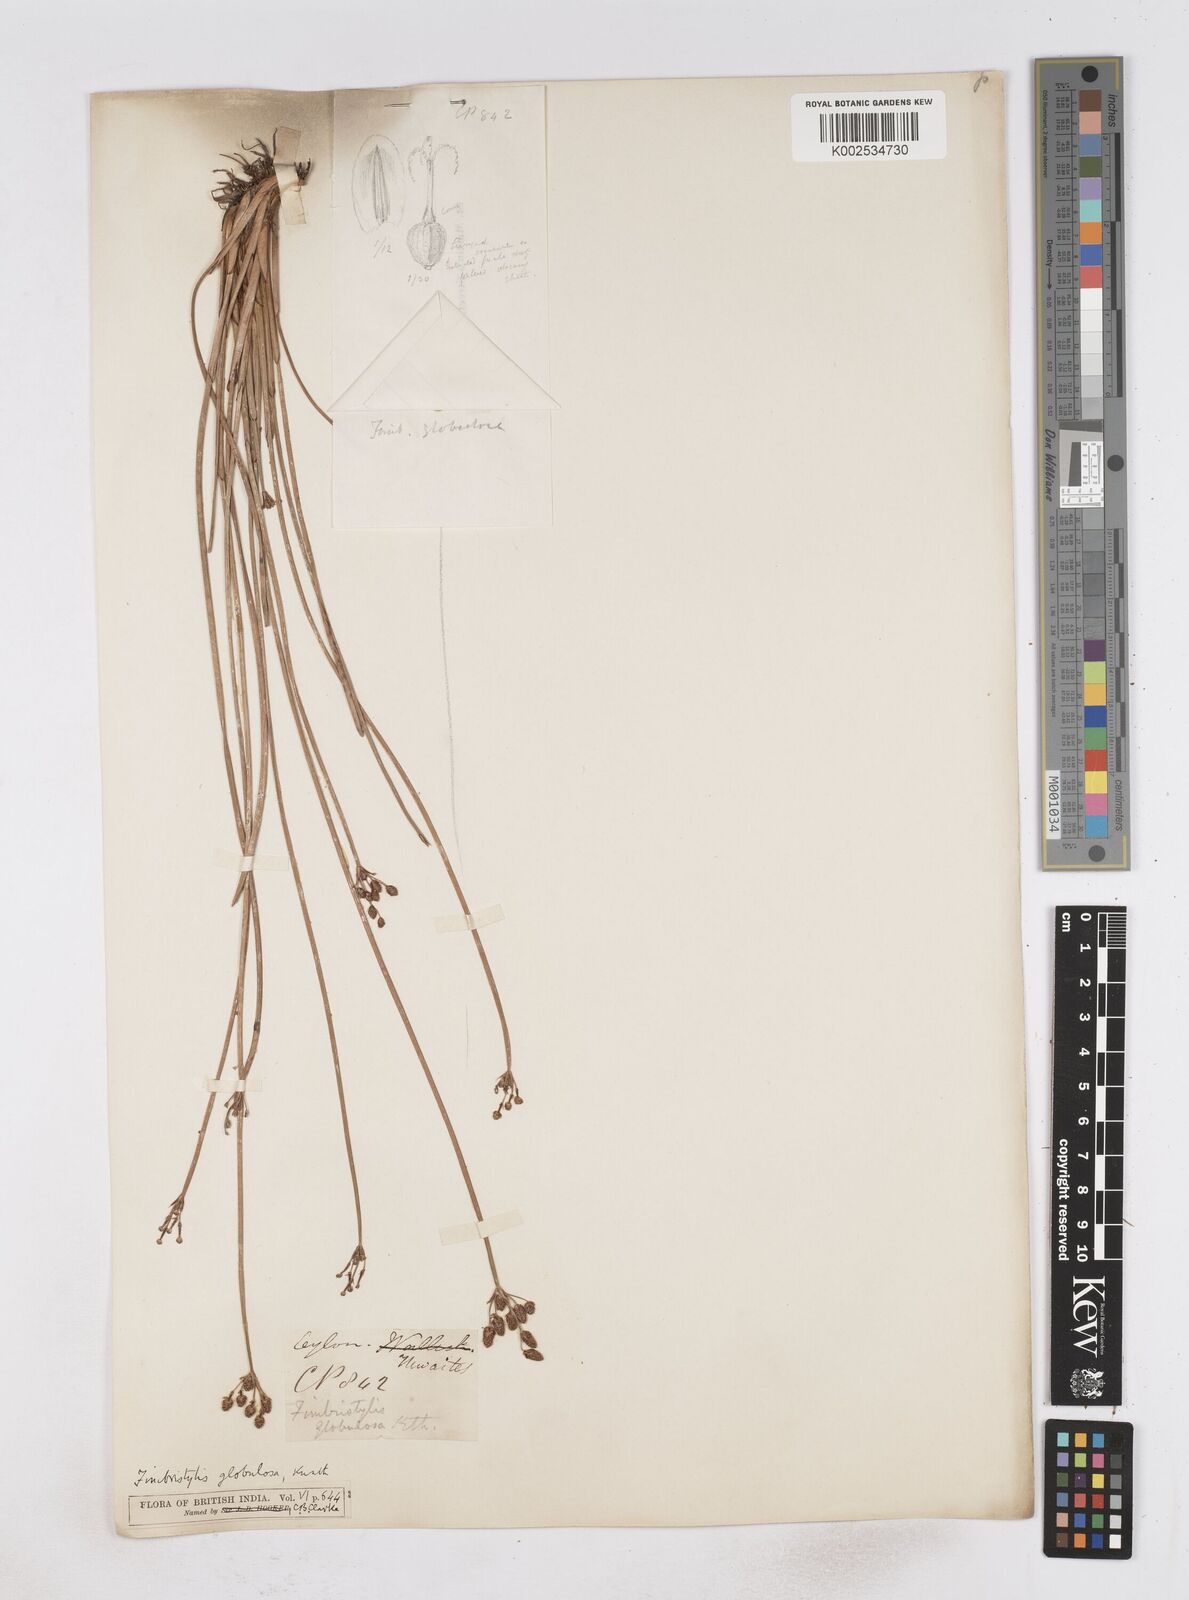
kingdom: Plantae
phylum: Tracheophyta
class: Liliopsida
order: Poales
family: Cyperaceae
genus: Fimbristylis
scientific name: Fimbristylis umbellaris
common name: Globular fimbristylis
